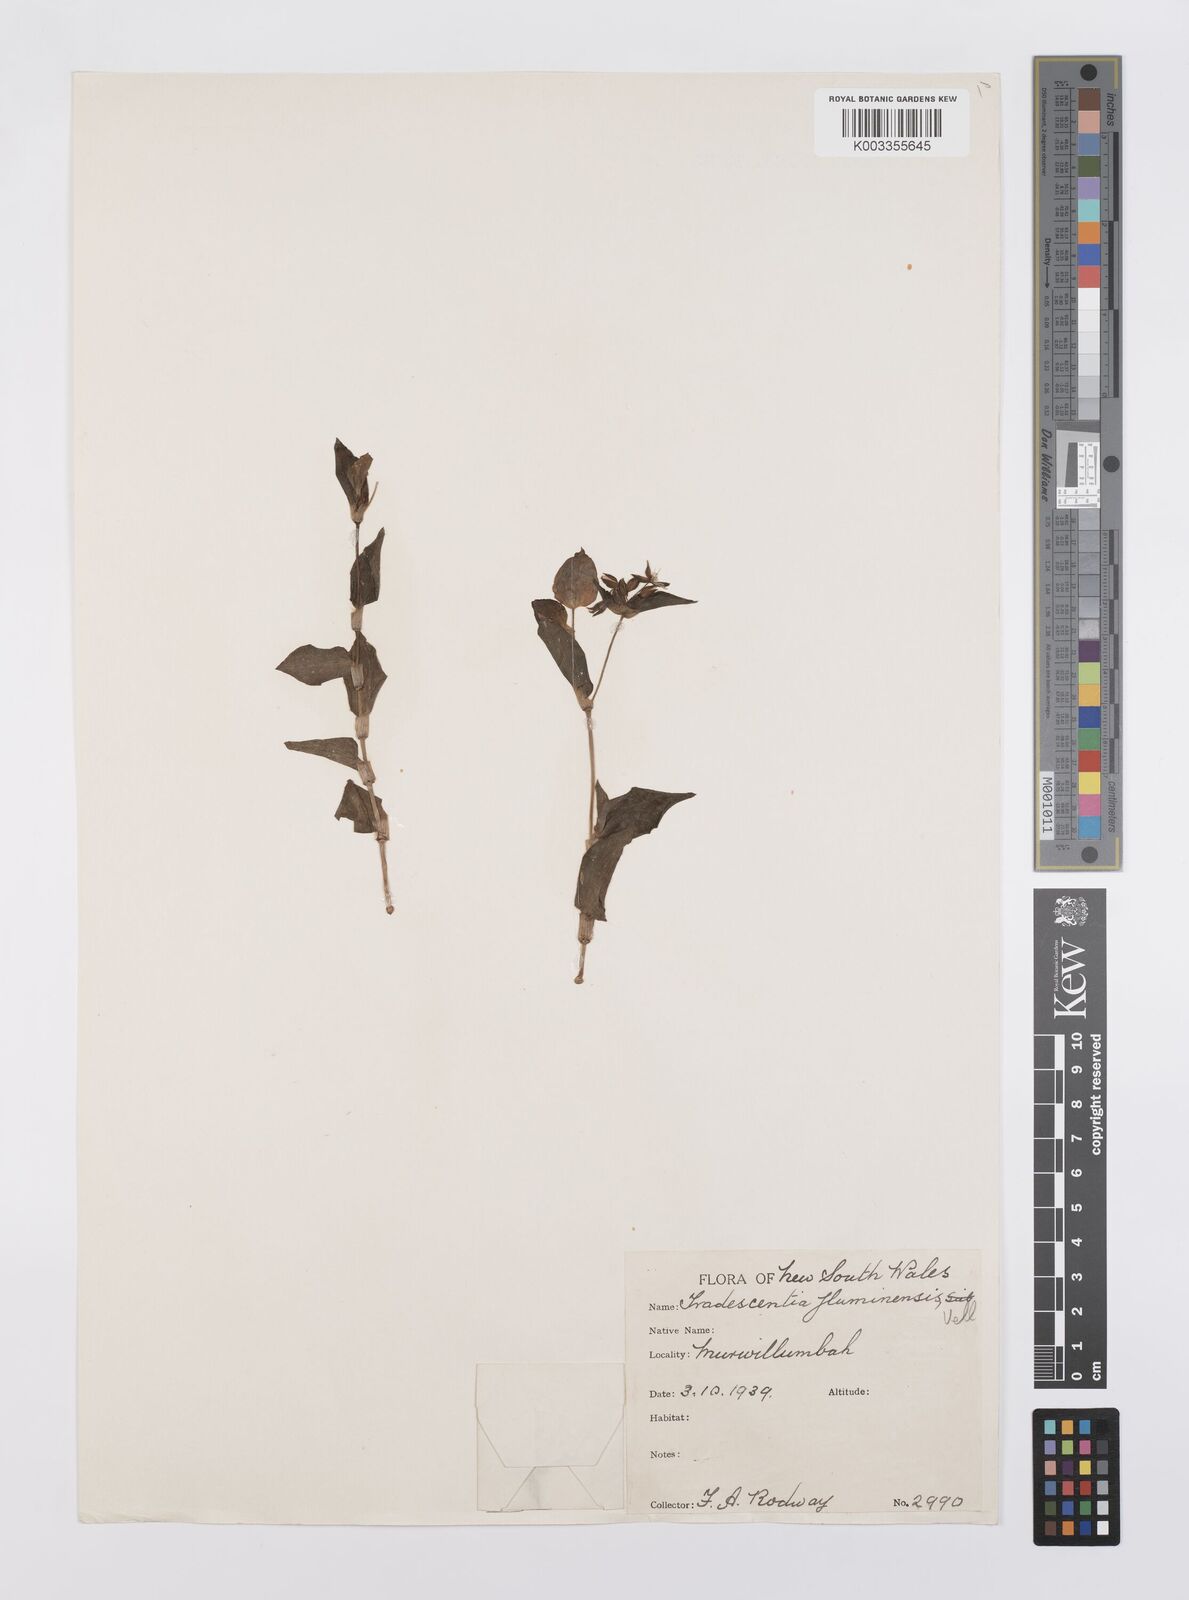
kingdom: Plantae
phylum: Tracheophyta
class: Liliopsida
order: Commelinales
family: Commelinaceae
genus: Tradescantia
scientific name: Tradescantia fluminensis
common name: Wandering-jew
